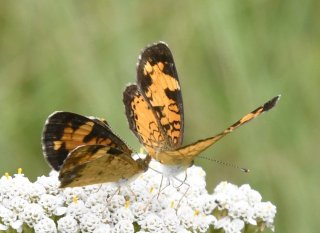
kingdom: Animalia
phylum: Arthropoda
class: Insecta
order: Lepidoptera
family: Nymphalidae
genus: Phyciodes
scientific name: Phyciodes tharos
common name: Northern Crescent
